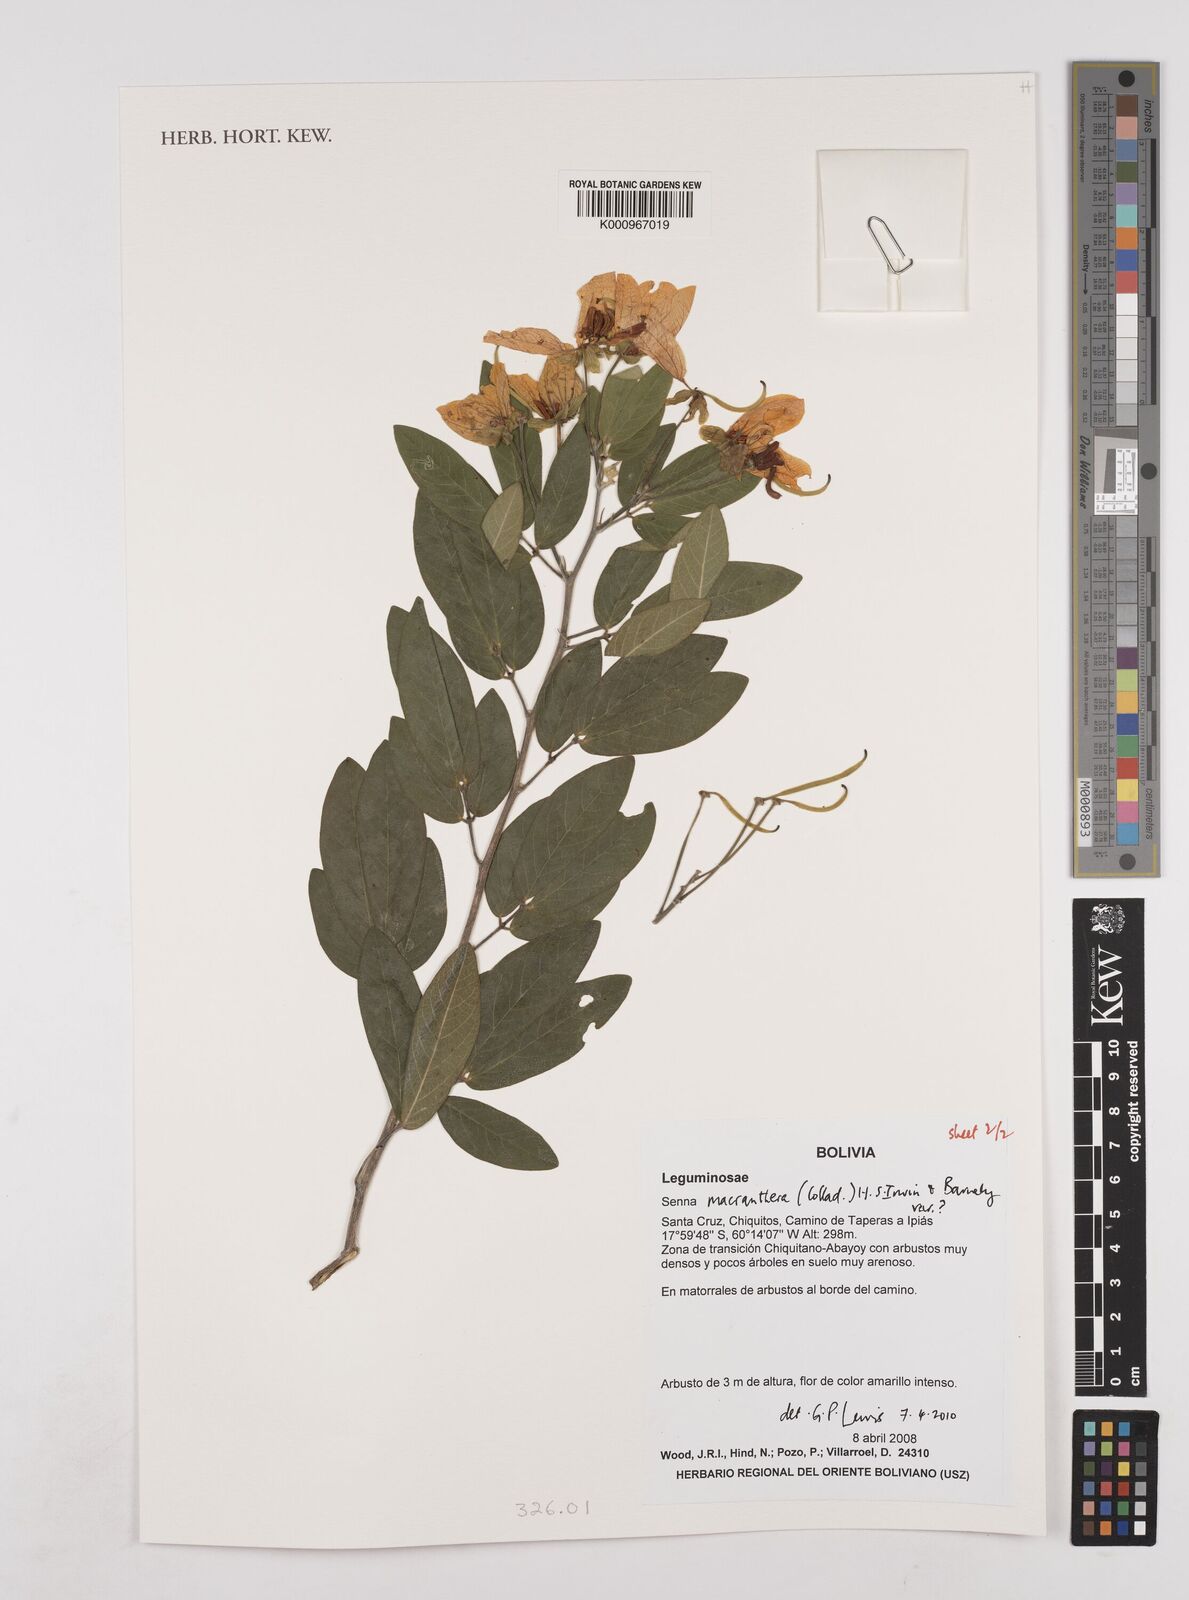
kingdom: Plantae
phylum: Tracheophyta
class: Magnoliopsida
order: Fabales
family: Fabaceae
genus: Senna
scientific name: Senna macranthera
